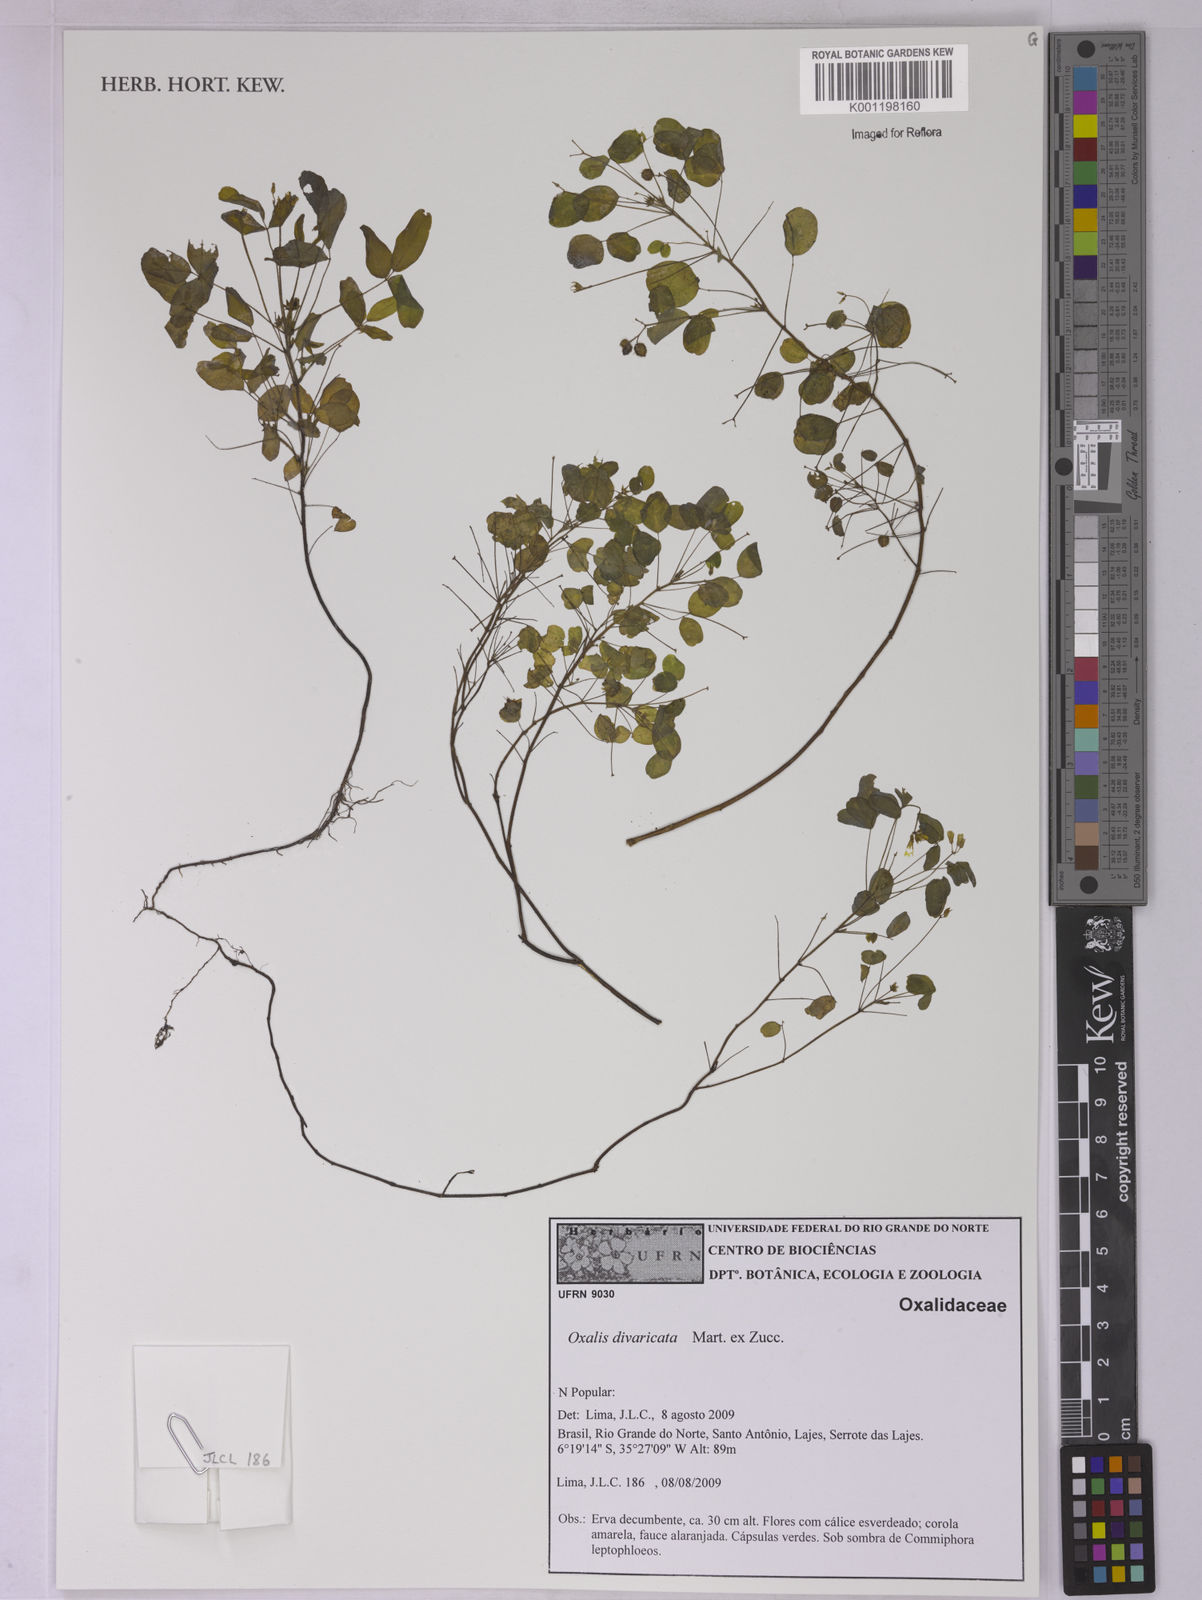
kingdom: Plantae
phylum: Tracheophyta
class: Magnoliopsida
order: Oxalidales
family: Oxalidaceae
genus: Oxalis
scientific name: Oxalis divaricata
